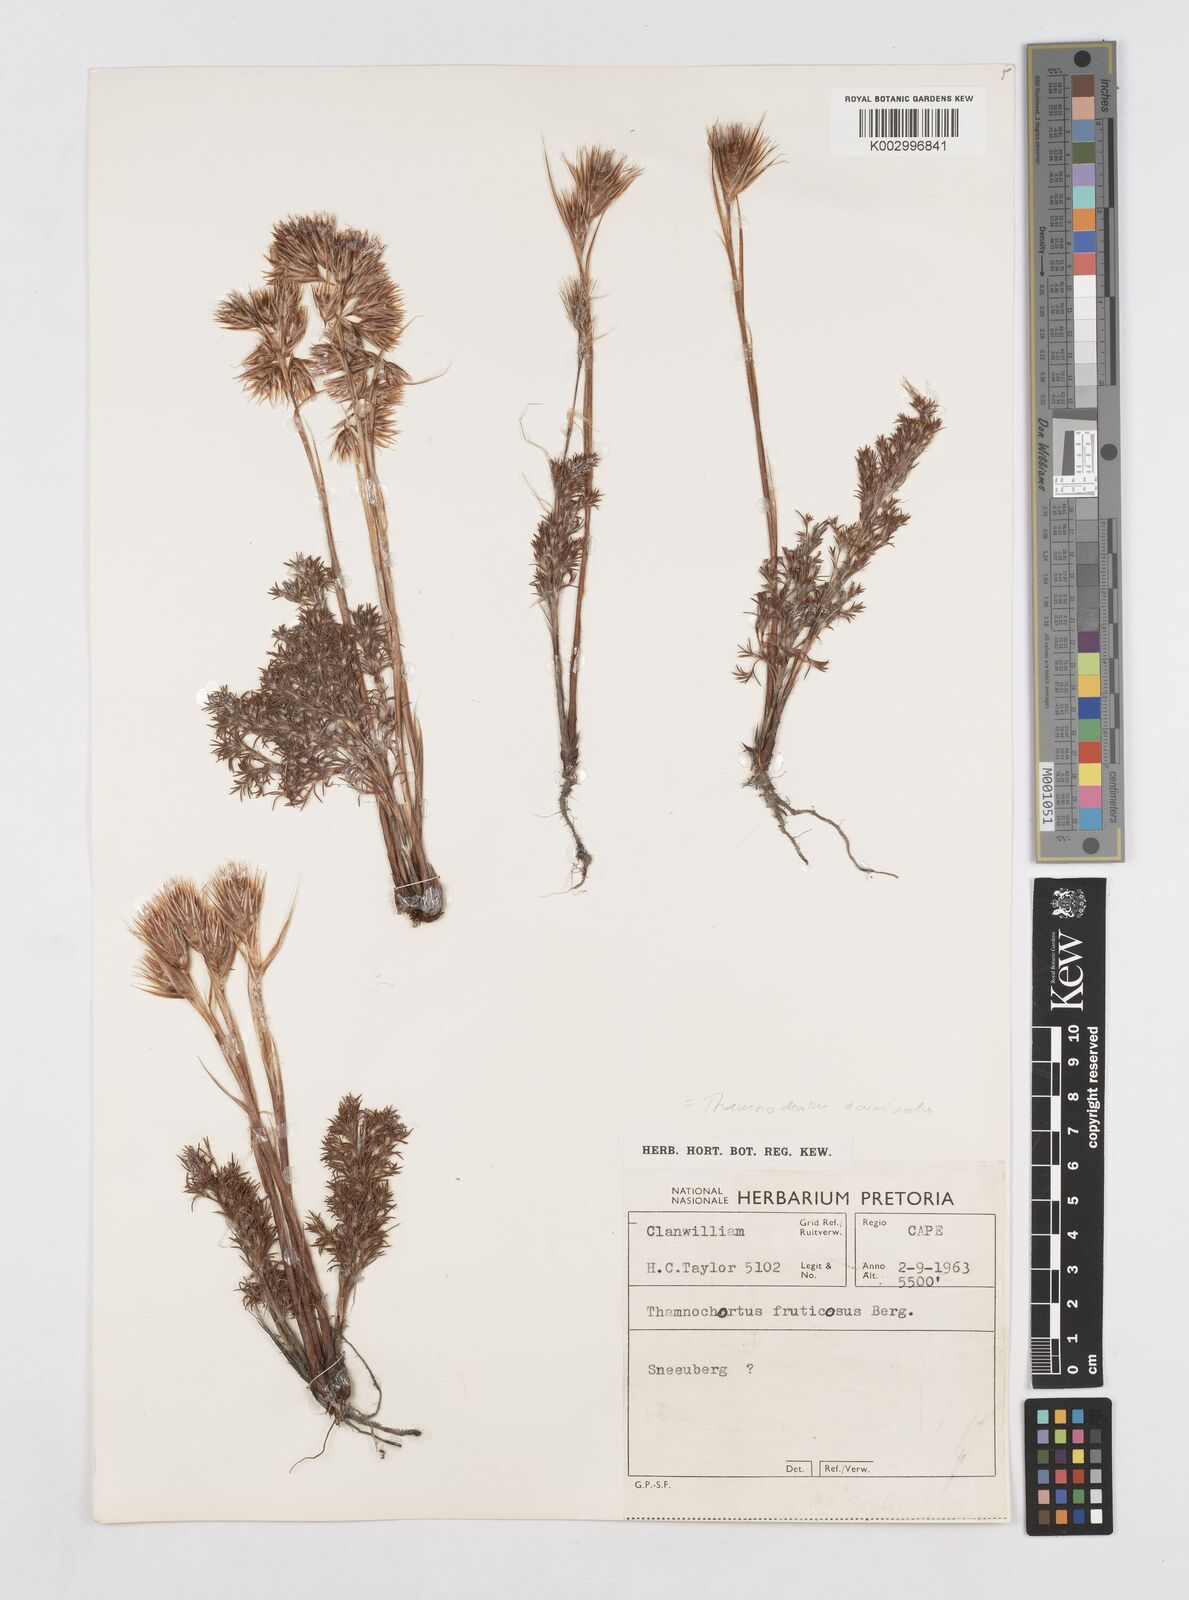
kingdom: Plantae
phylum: Tracheophyta
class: Liliopsida
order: Poales
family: Restionaceae
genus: Thamnochortus
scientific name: Thamnochortus acuminatus
